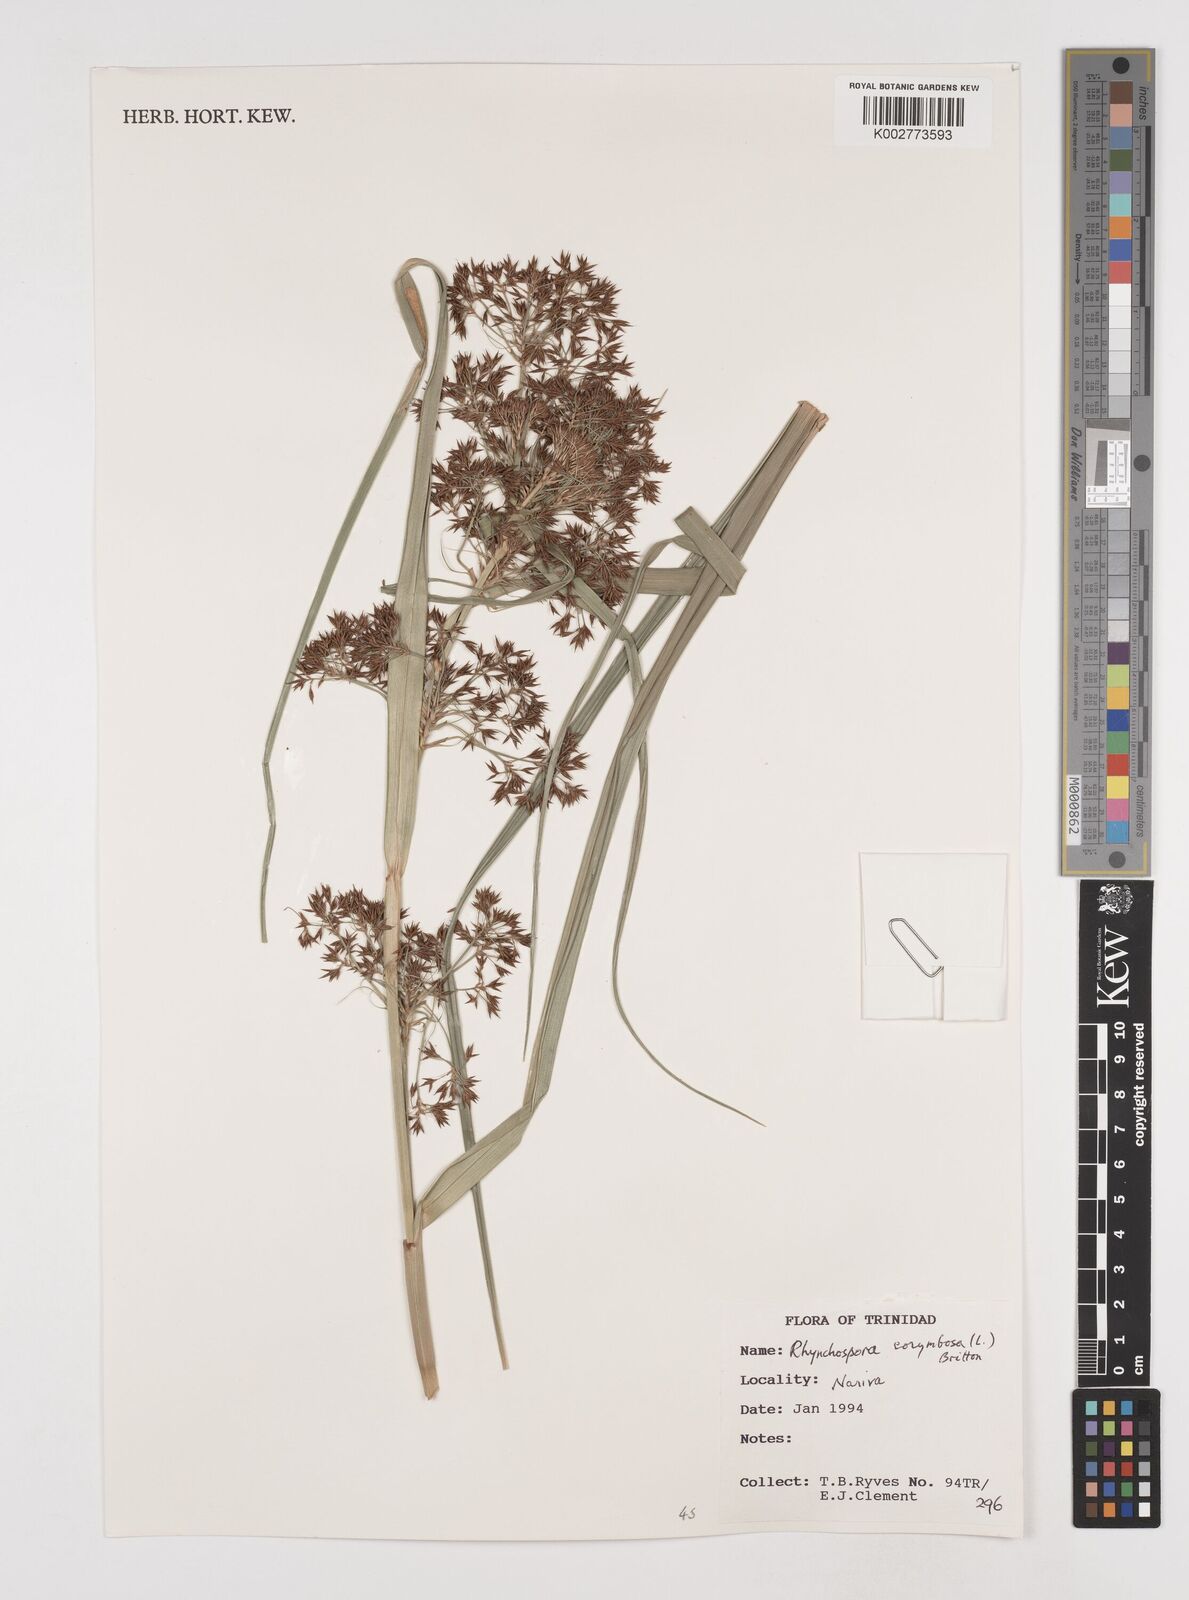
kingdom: Plantae
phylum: Tracheophyta
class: Liliopsida
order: Poales
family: Cyperaceae
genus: Rhynchospora
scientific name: Rhynchospora corymbosa
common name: Golden beak sedge
